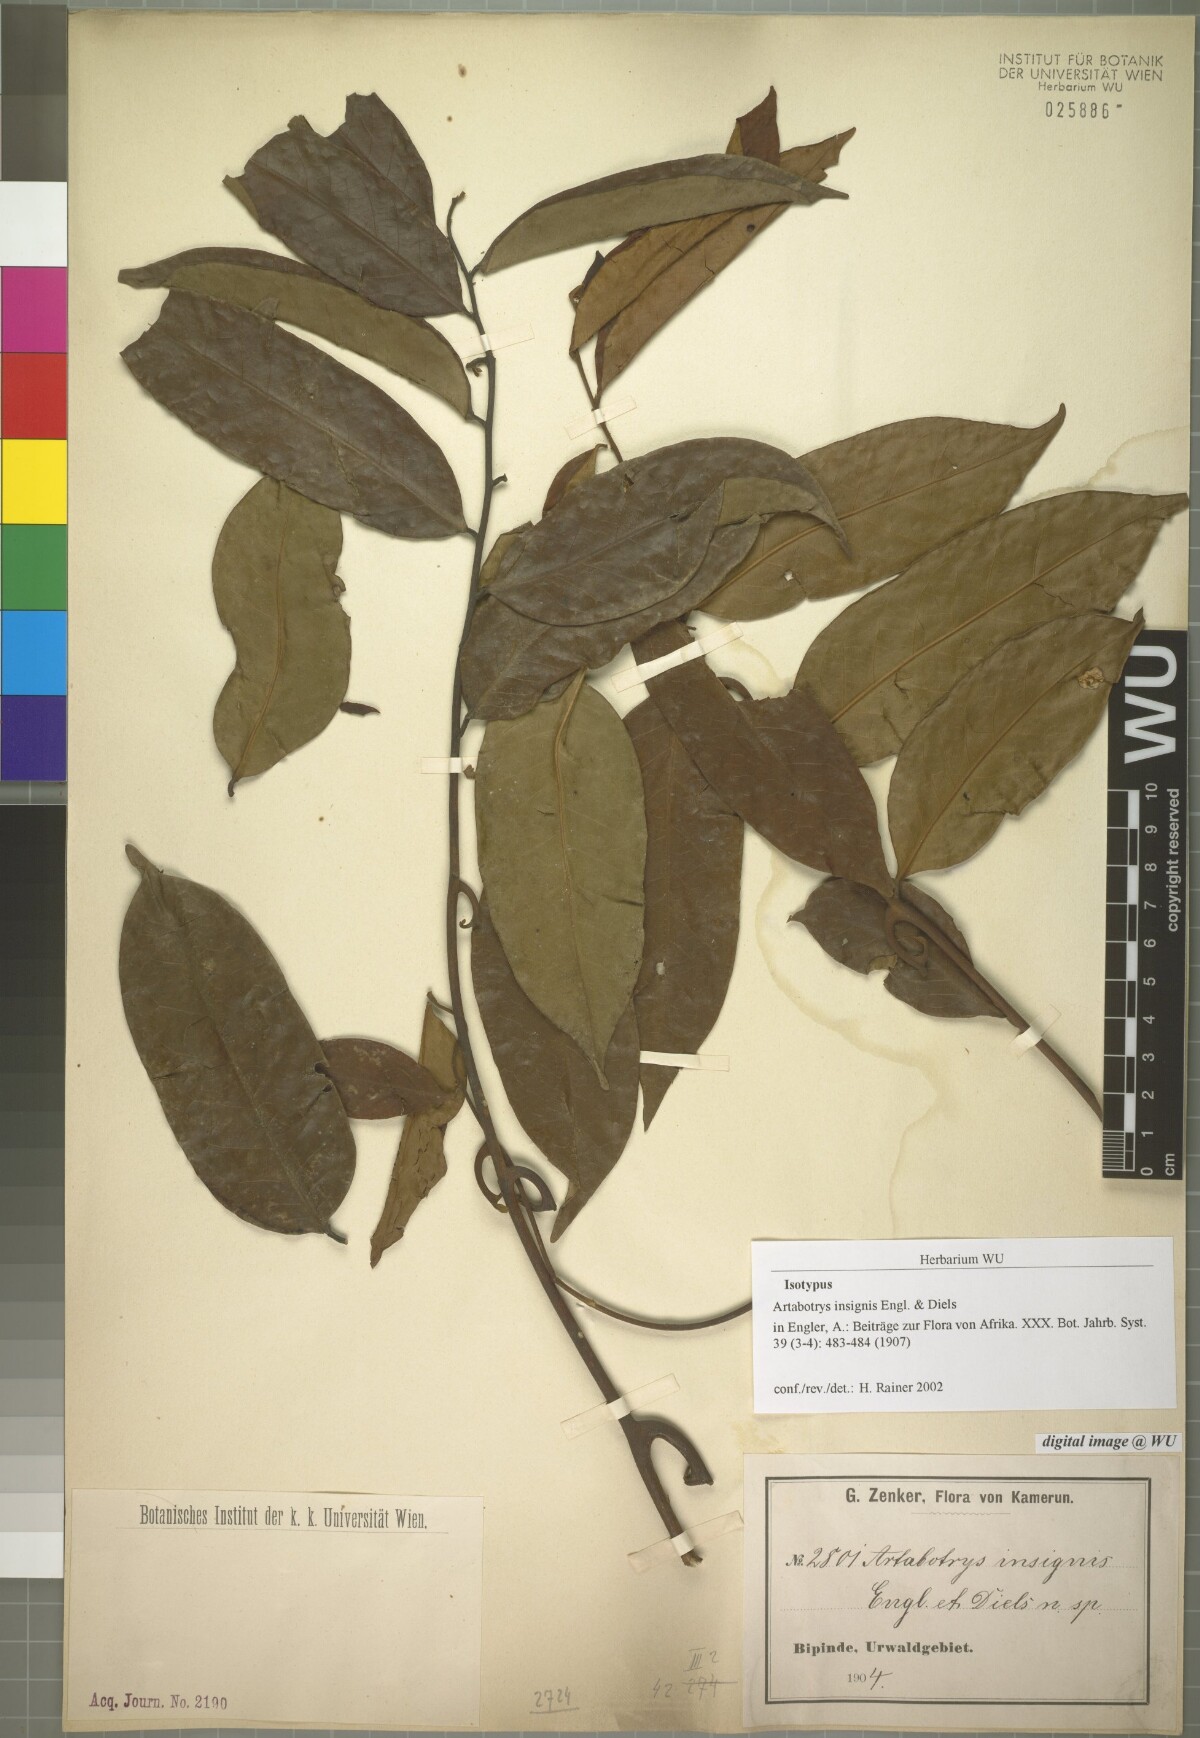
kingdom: Plantae
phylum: Tracheophyta
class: Magnoliopsida
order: Magnoliales
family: Annonaceae
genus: Artabotrys
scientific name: Artabotrys insignis
